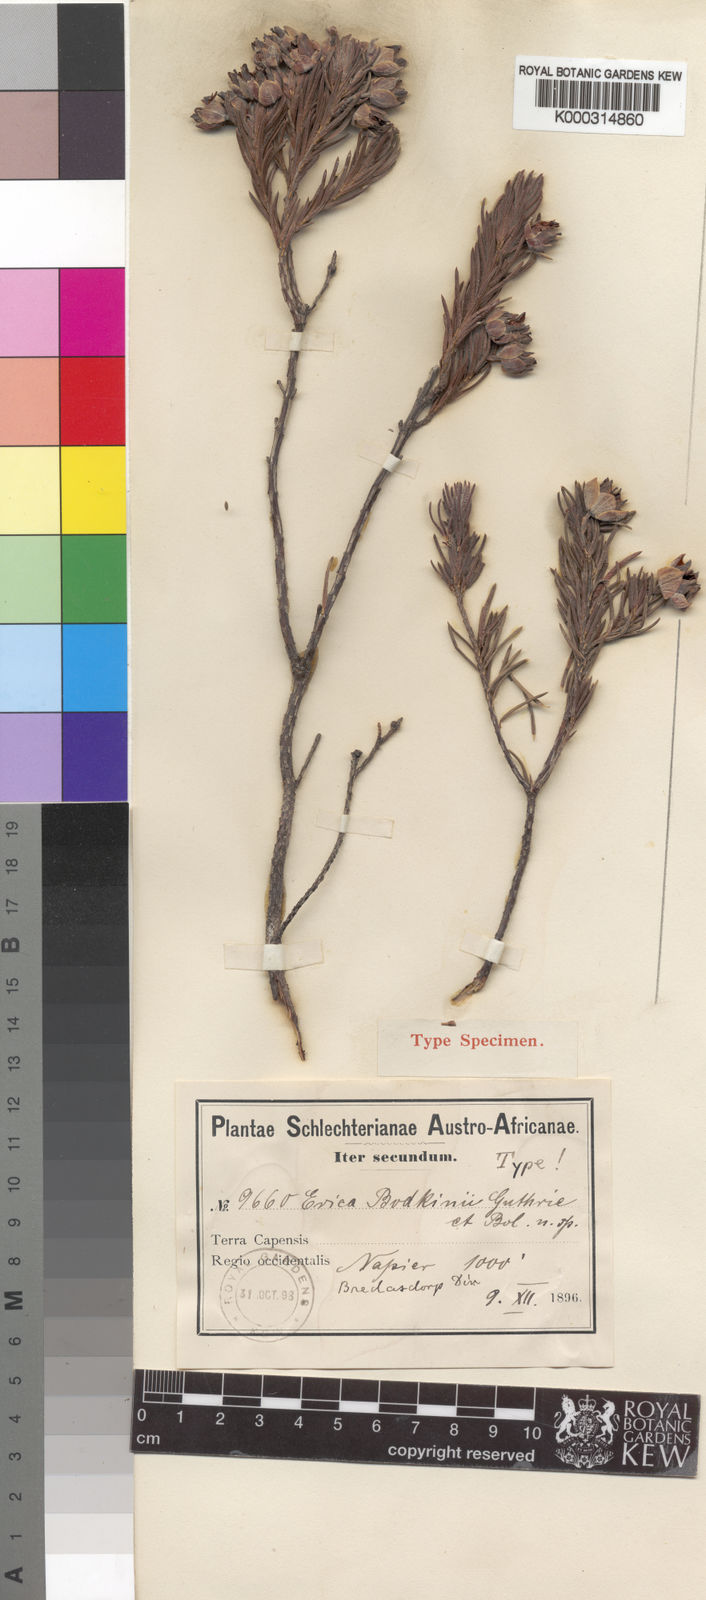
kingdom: Plantae
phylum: Tracheophyta
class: Magnoliopsida
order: Ericales
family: Ericaceae
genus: Erica
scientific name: Erica bodkinii
